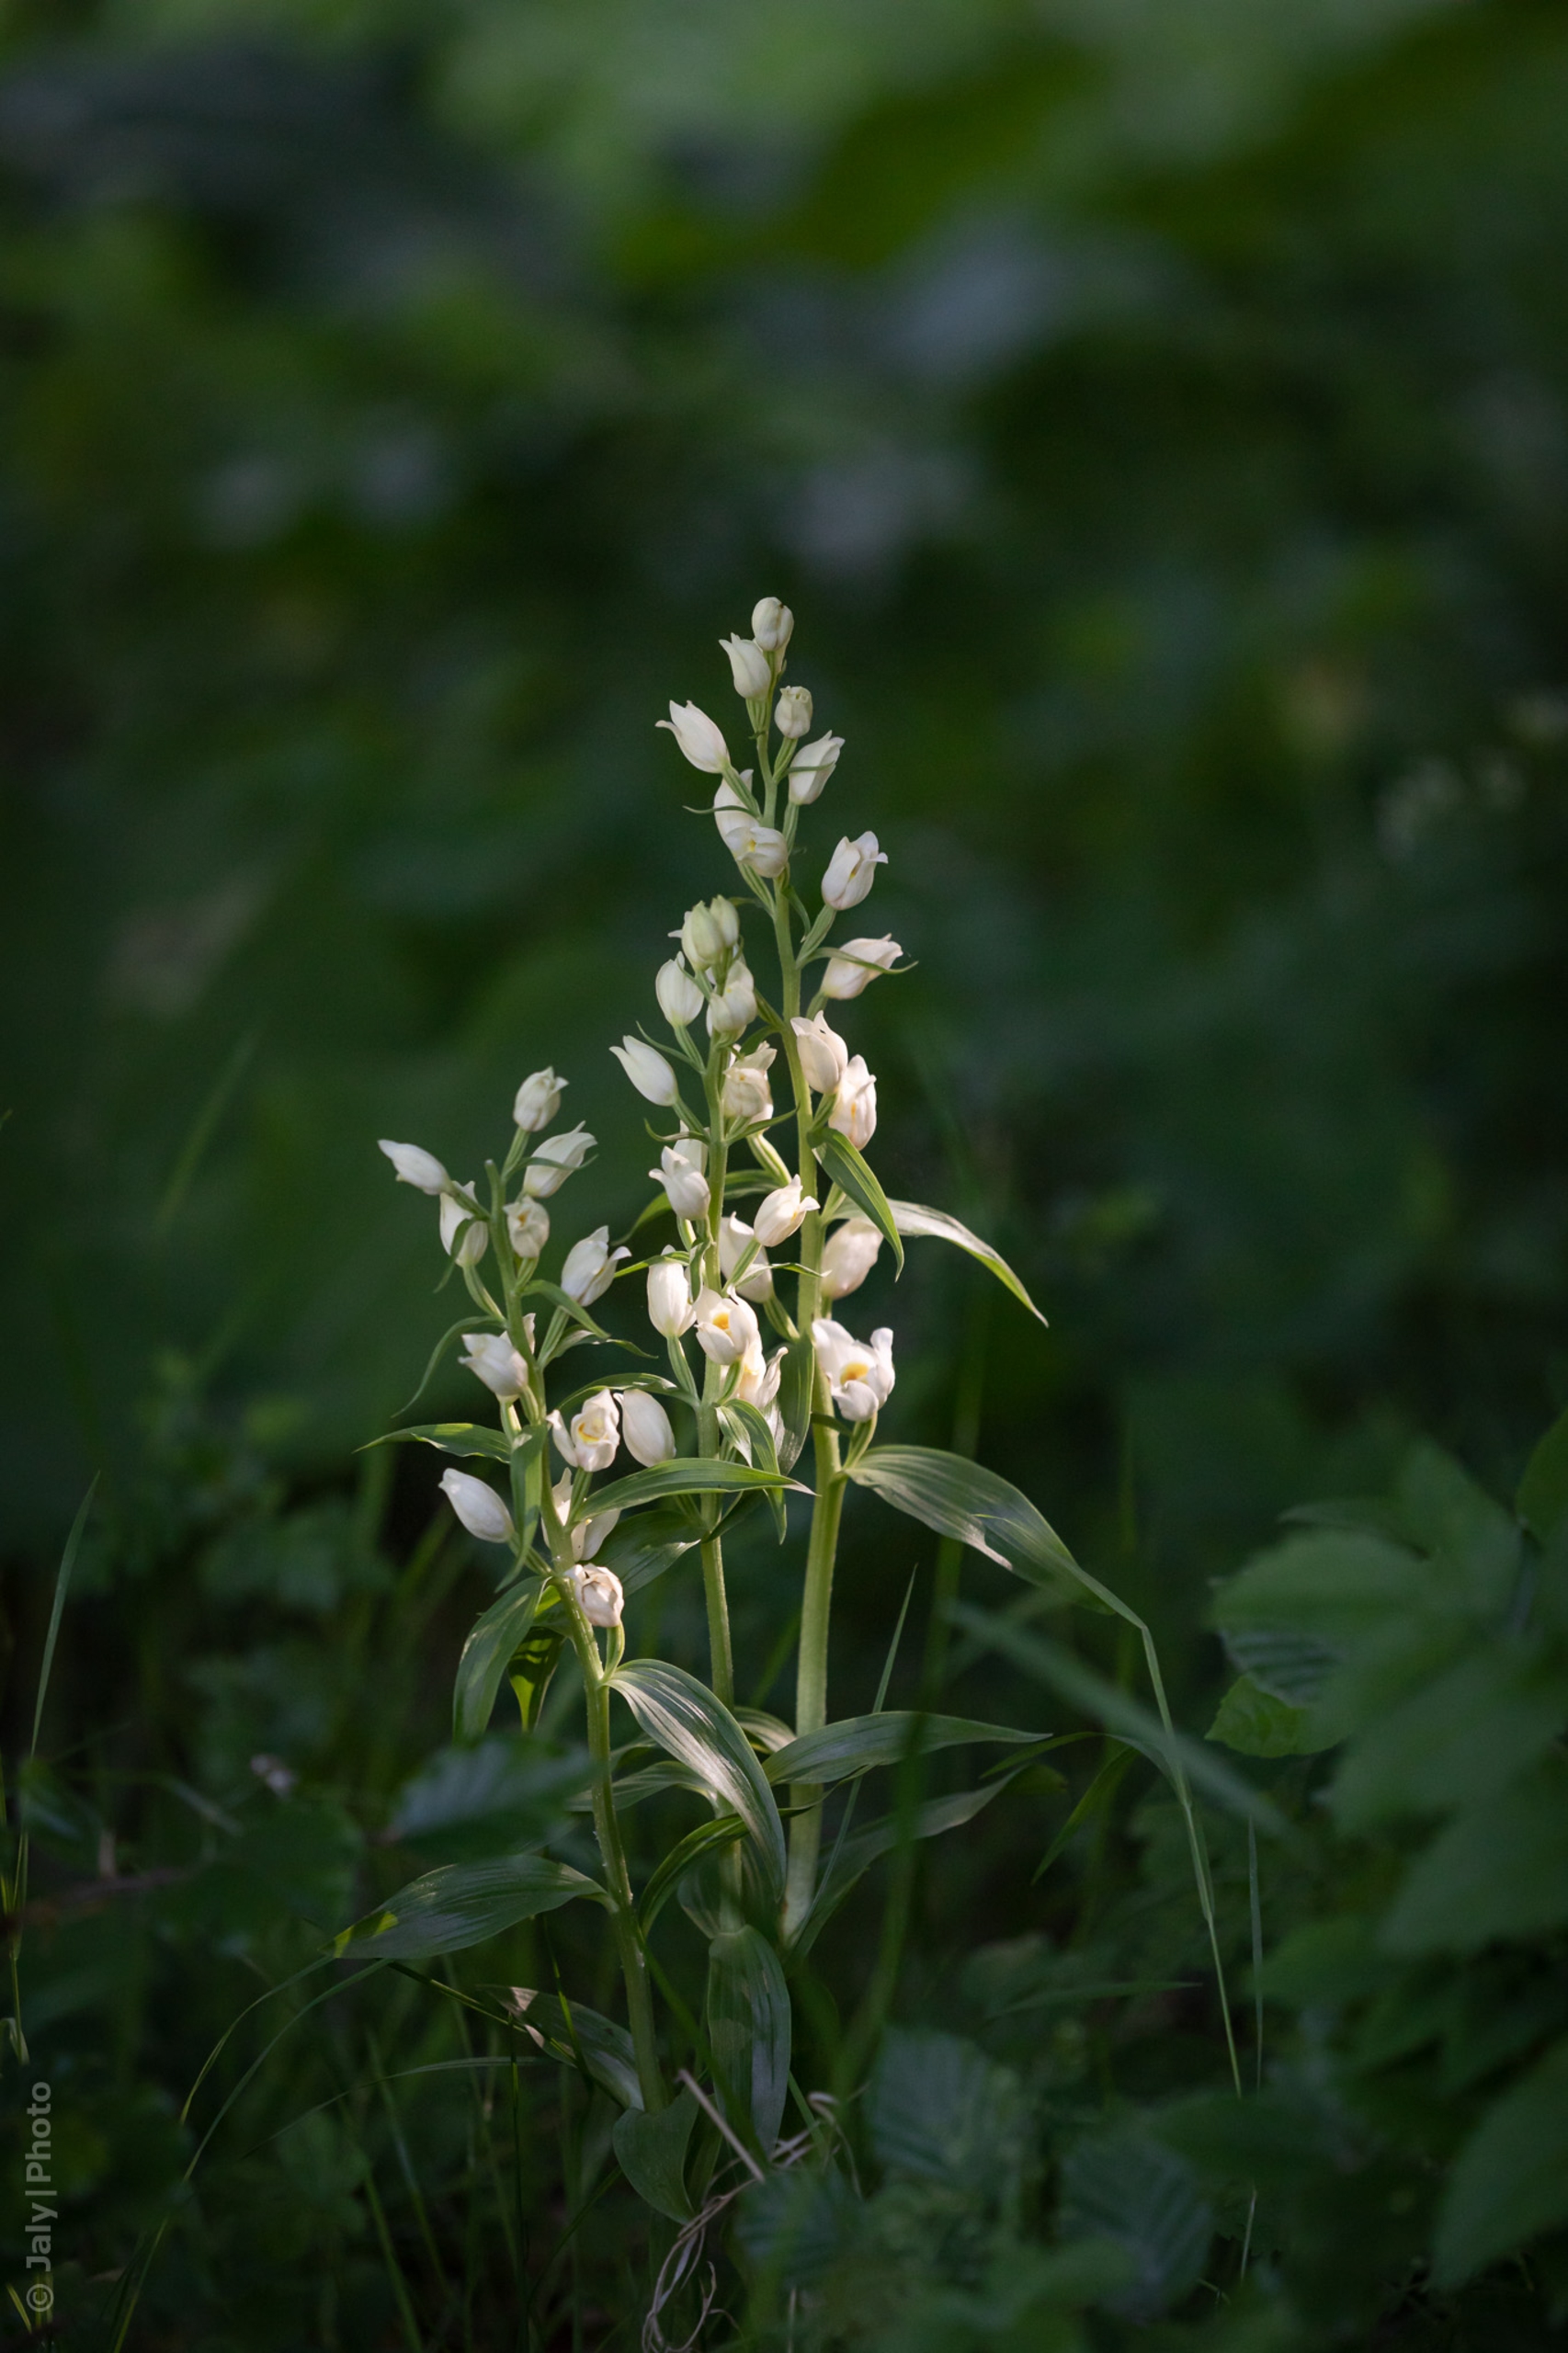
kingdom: Plantae
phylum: Tracheophyta
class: Liliopsida
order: Asparagales
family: Orchidaceae
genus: Cephalanthera
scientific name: Cephalanthera damasonium
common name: Hvidgul skovlilje
